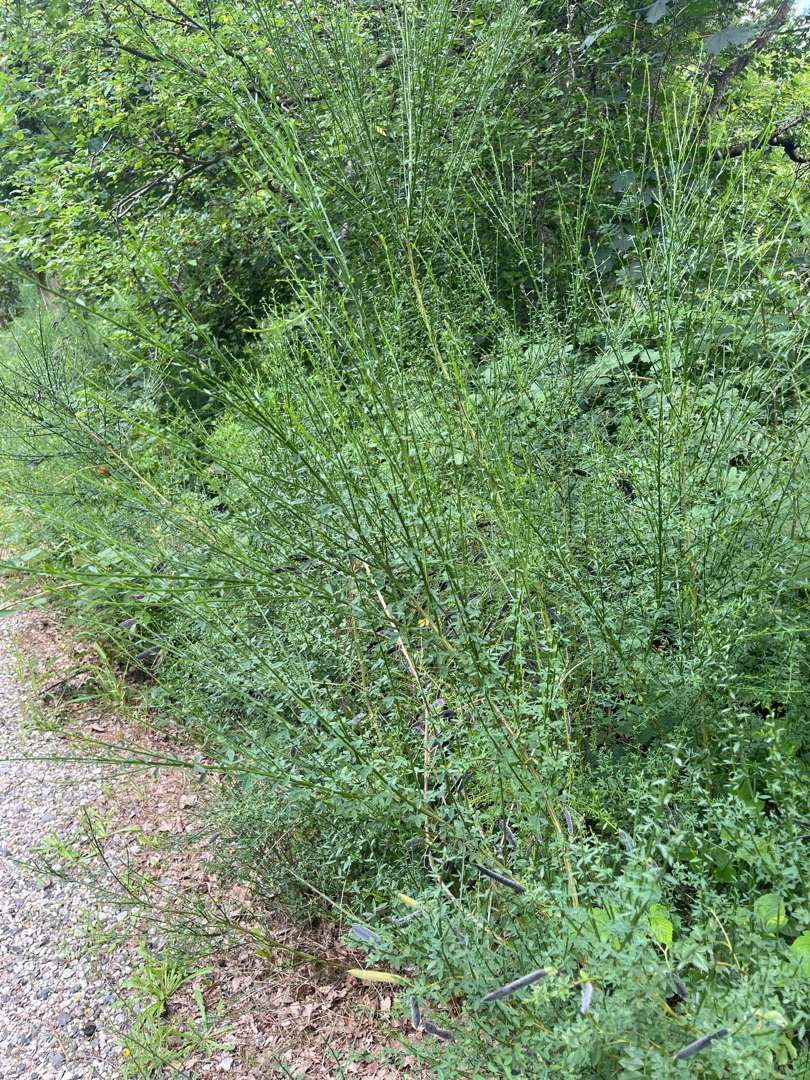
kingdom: Plantae
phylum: Tracheophyta
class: Magnoliopsida
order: Fabales
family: Fabaceae
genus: Cytisus
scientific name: Cytisus scoparius
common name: Almindelig gyvel
